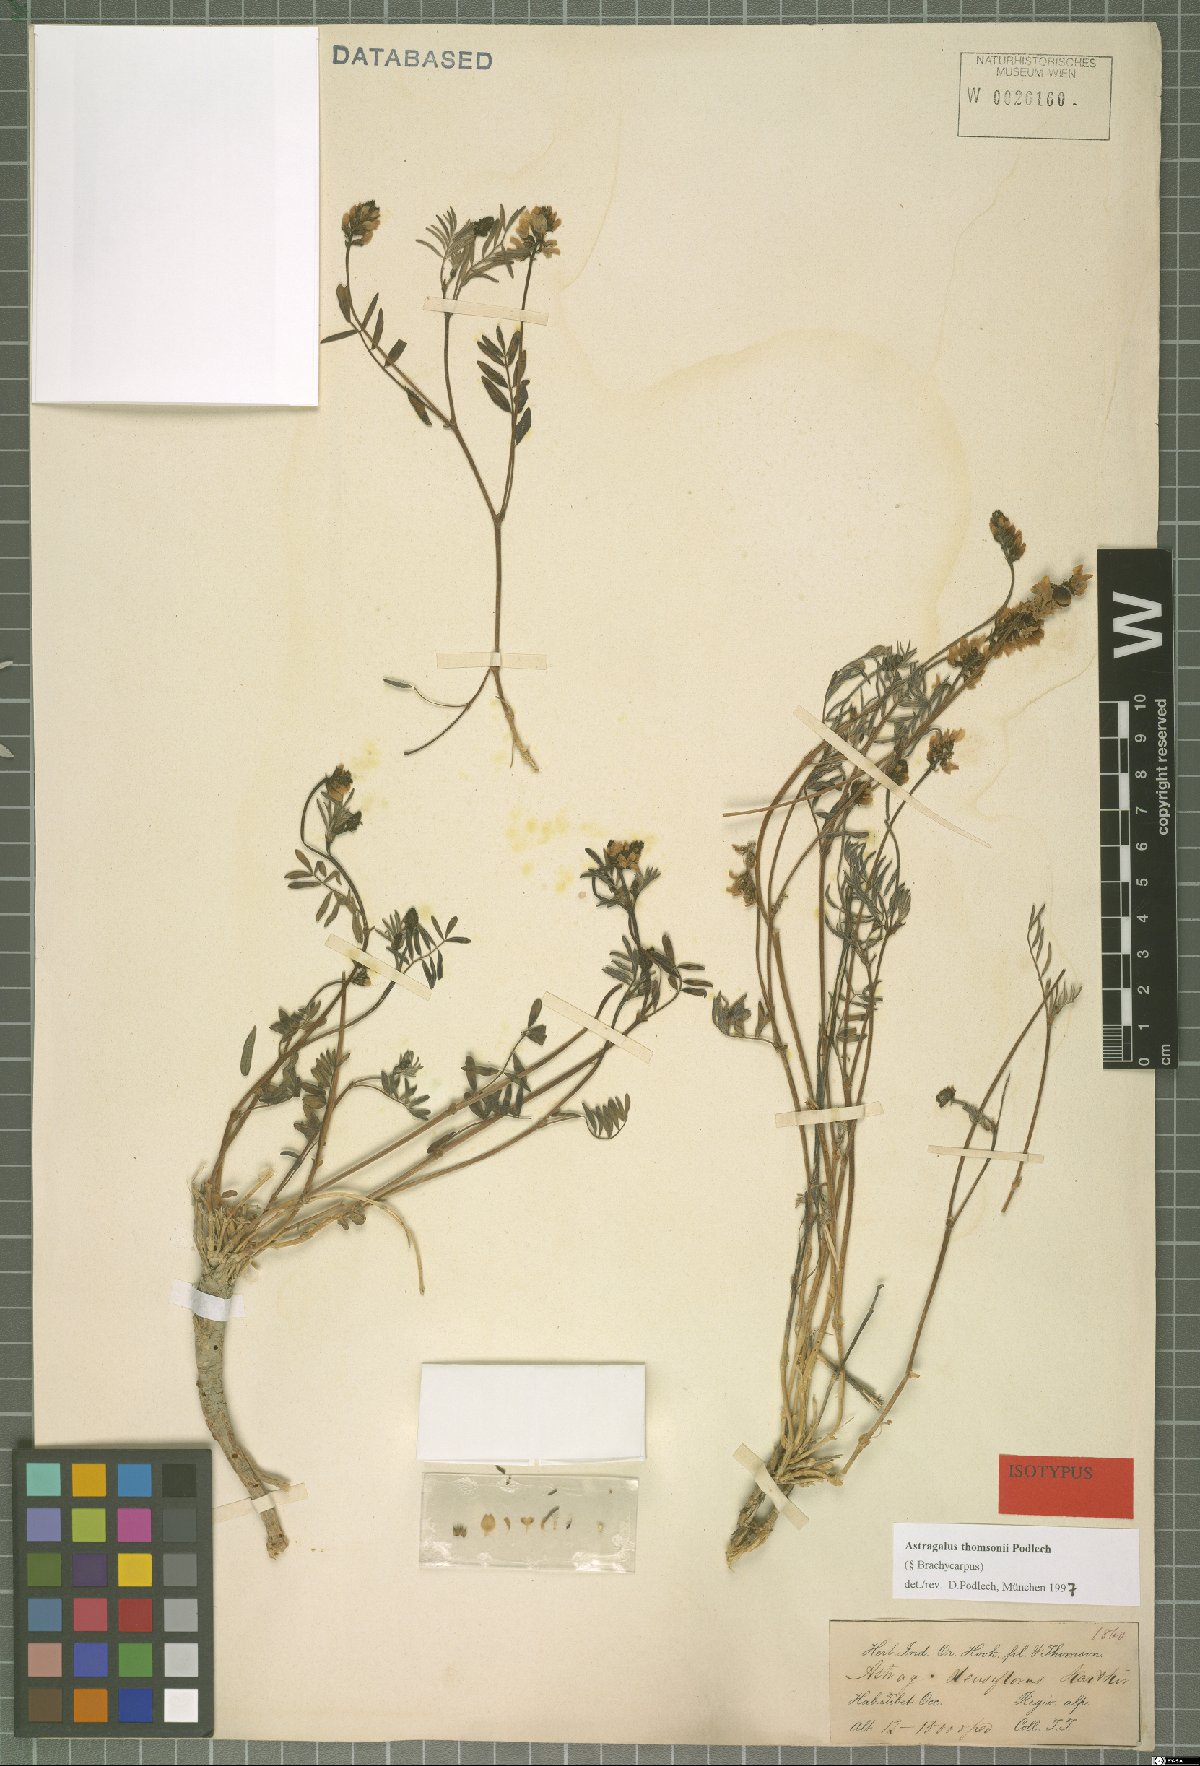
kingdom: Plantae
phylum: Tracheophyta
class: Magnoliopsida
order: Fabales
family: Fabaceae
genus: Astragalus
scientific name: Astragalus thomsonii
